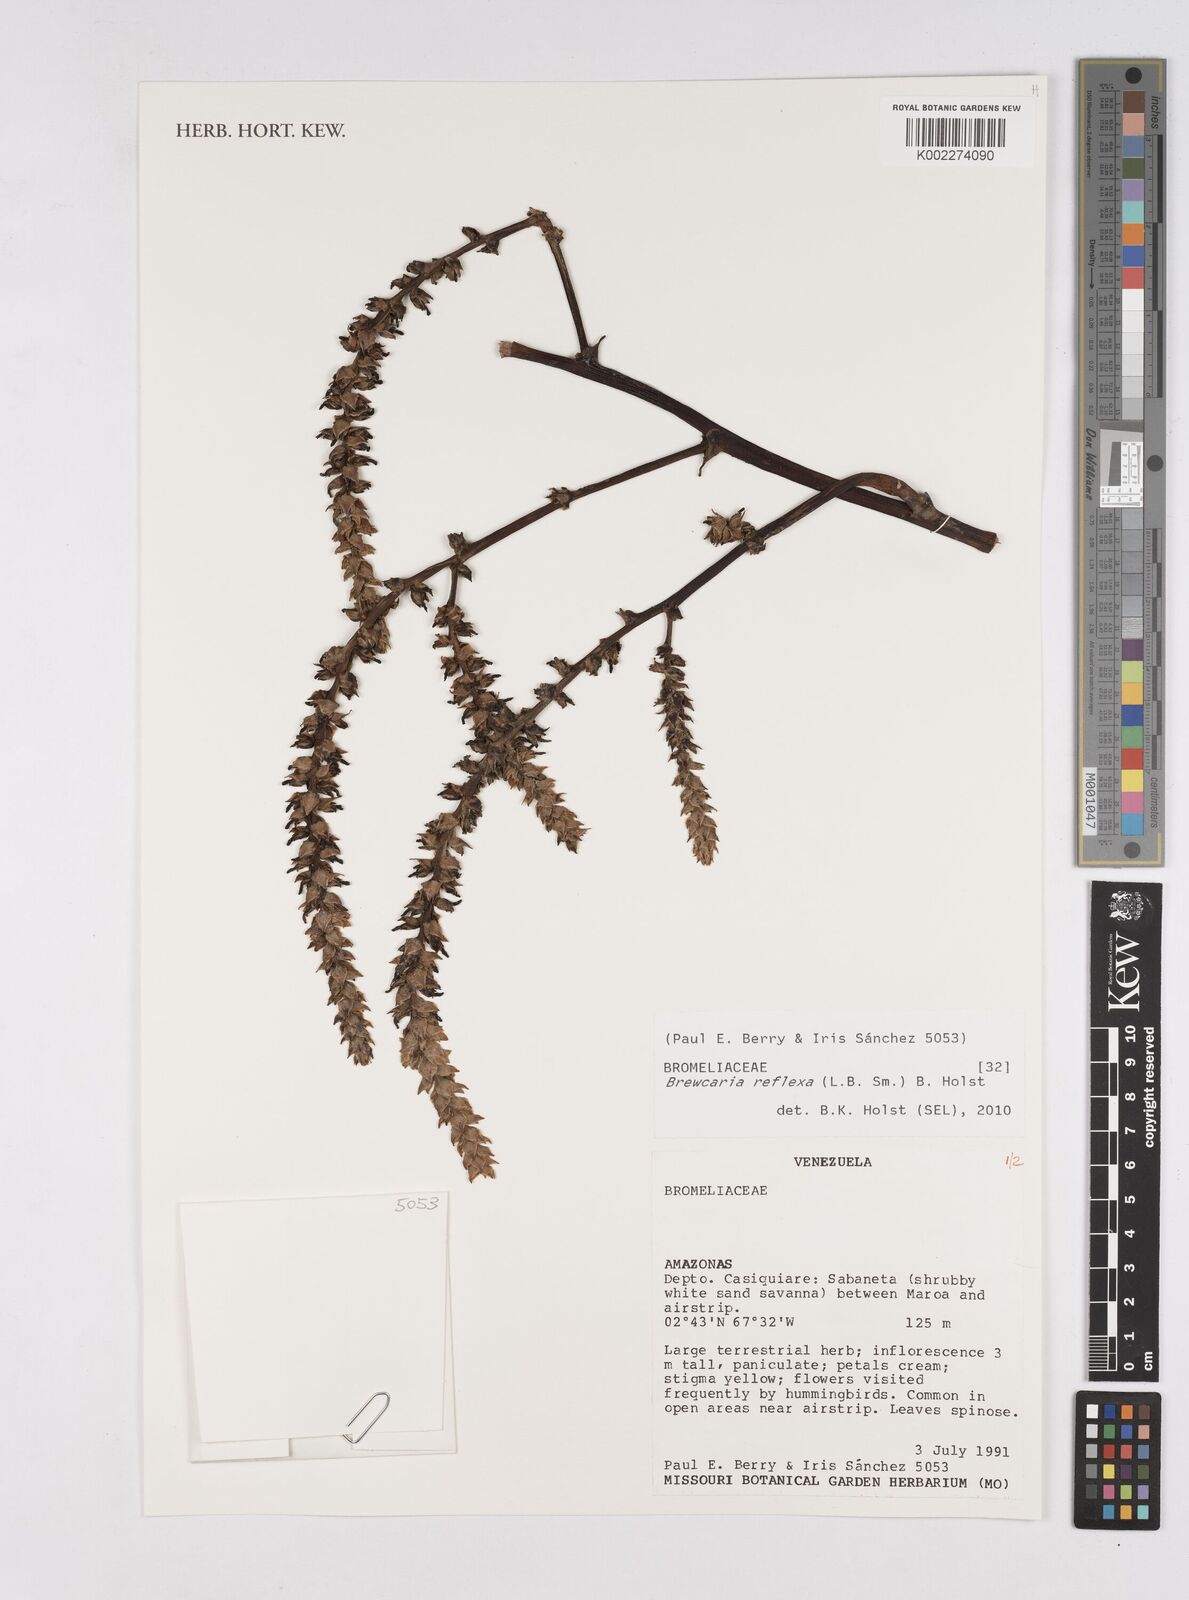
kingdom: Plantae
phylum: Tracheophyta
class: Liliopsida
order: Poales
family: Bromeliaceae
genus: Navia
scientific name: Navia reflexa
